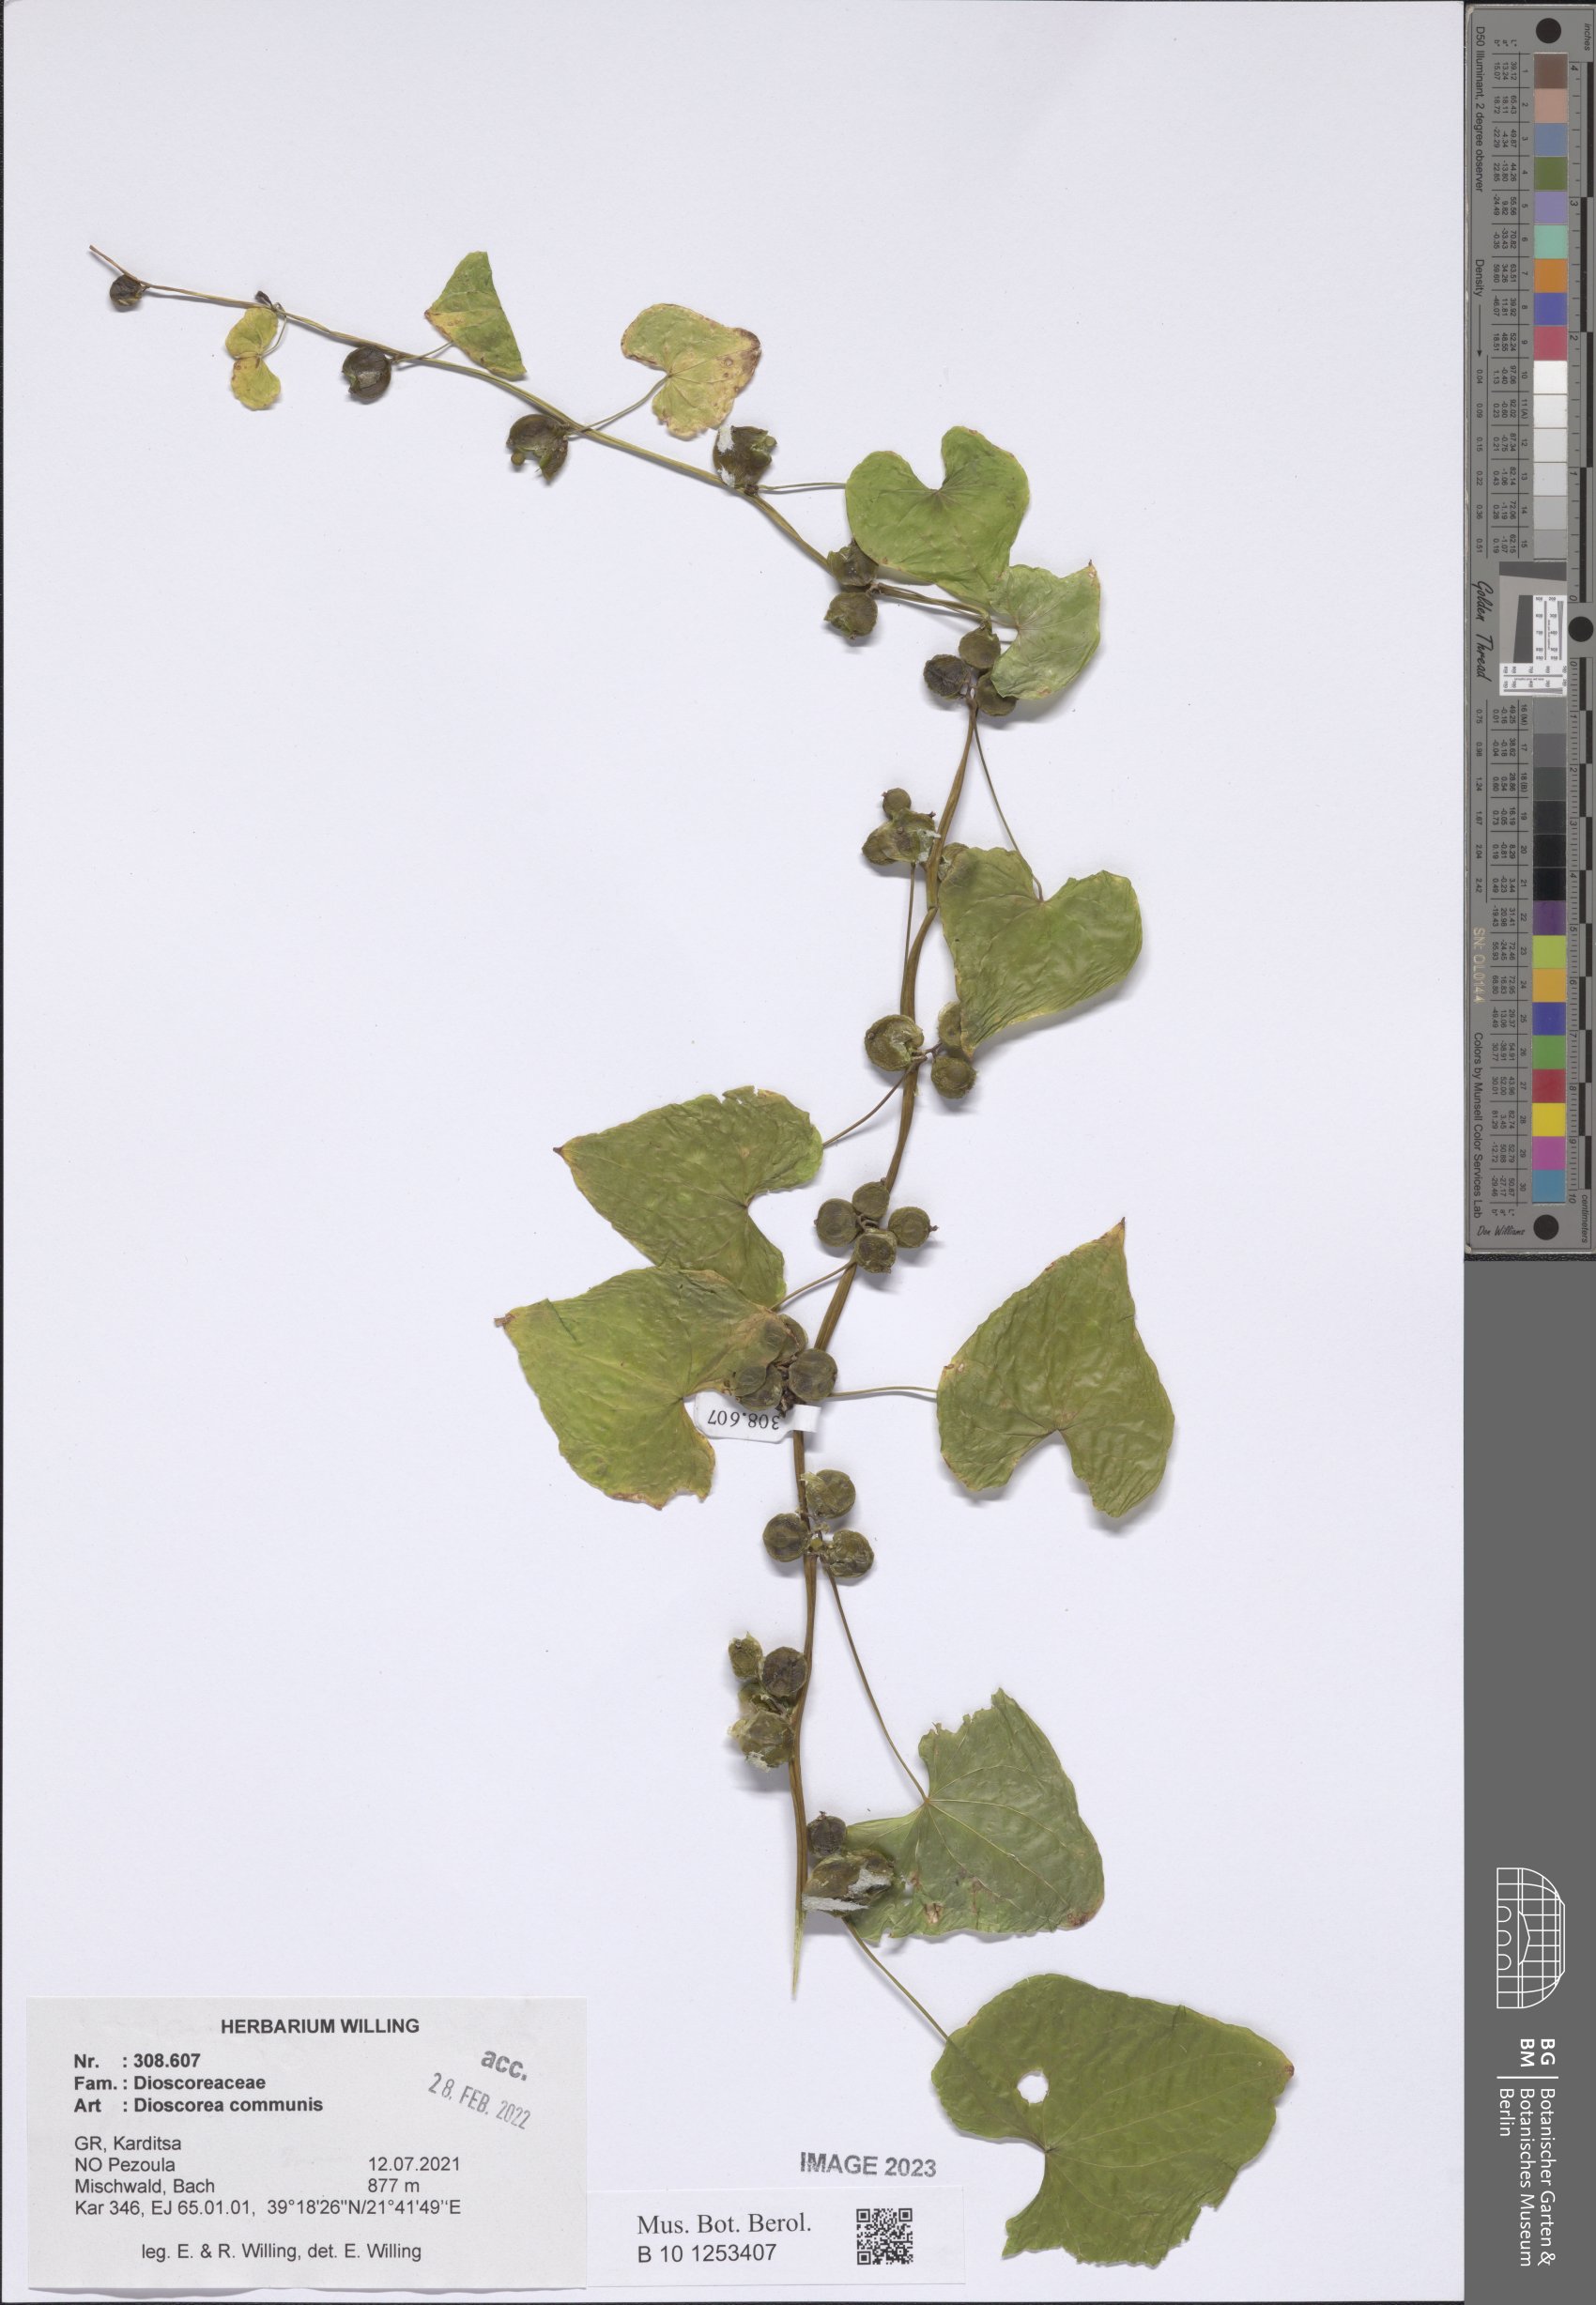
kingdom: Plantae
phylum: Tracheophyta
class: Liliopsida
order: Dioscoreales
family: Dioscoreaceae
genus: Dioscorea
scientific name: Dioscorea communis
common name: Black-bindweed
